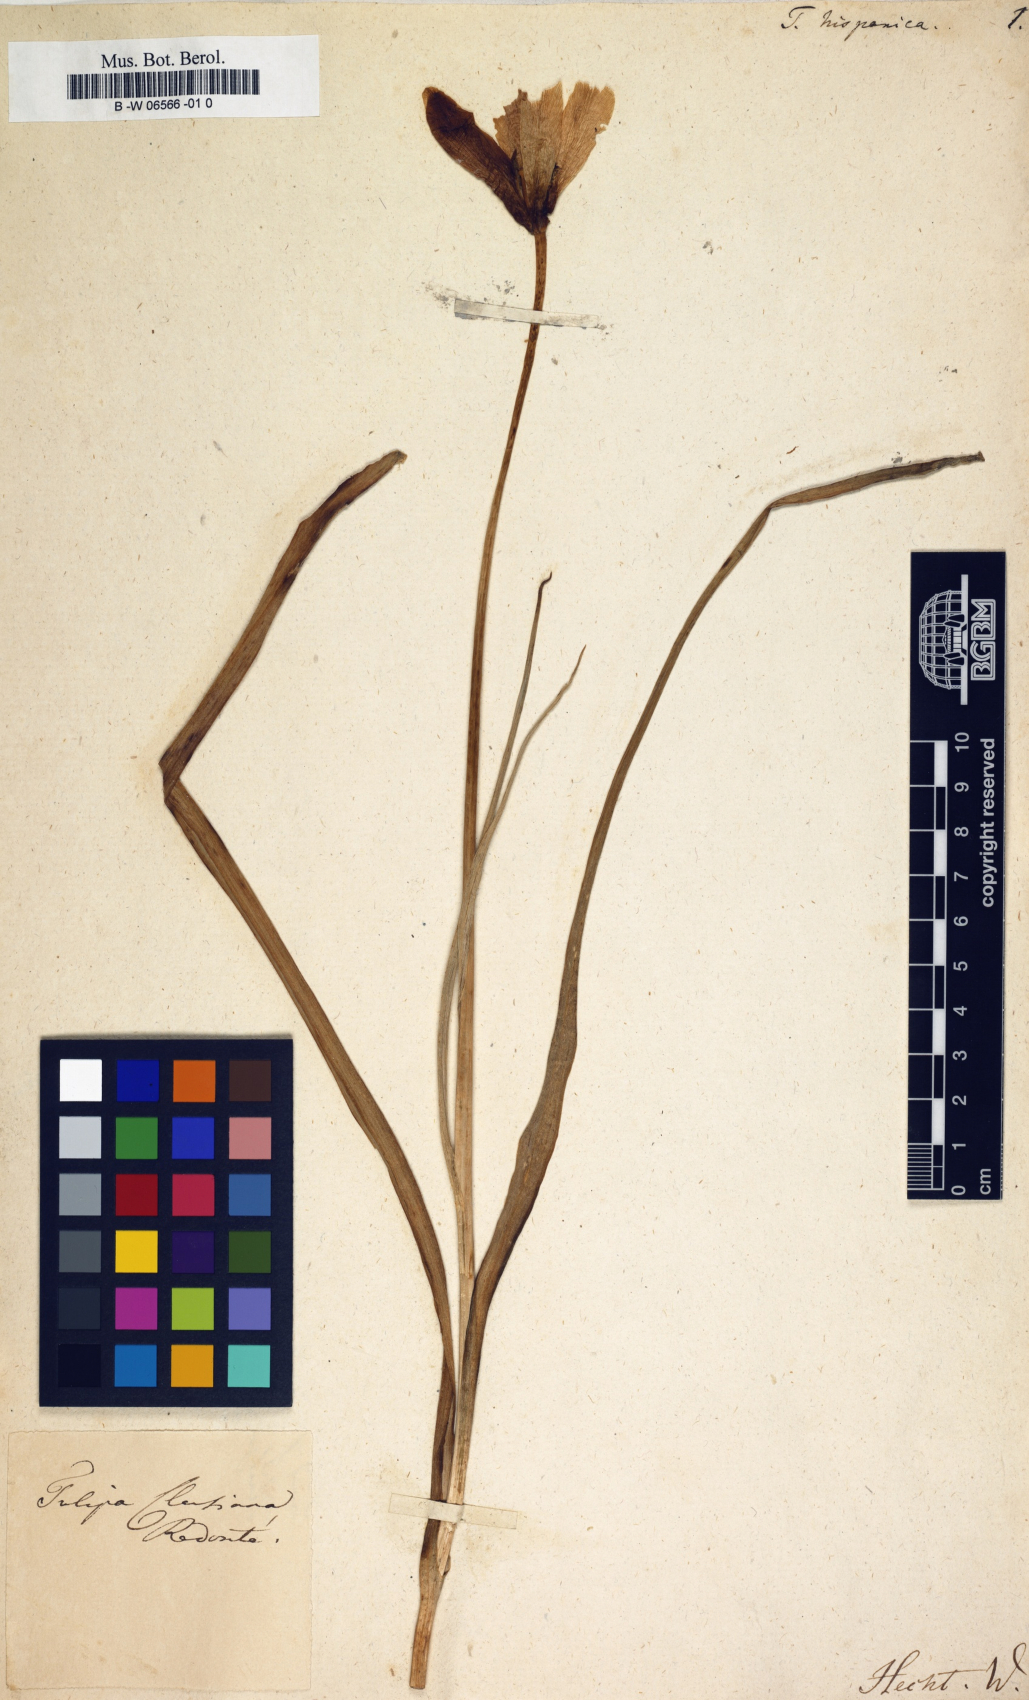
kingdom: Plantae
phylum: Tracheophyta
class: Liliopsida
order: Liliales
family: Liliaceae
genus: Tulipa
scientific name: Tulipa clusiana
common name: Lady tulip
